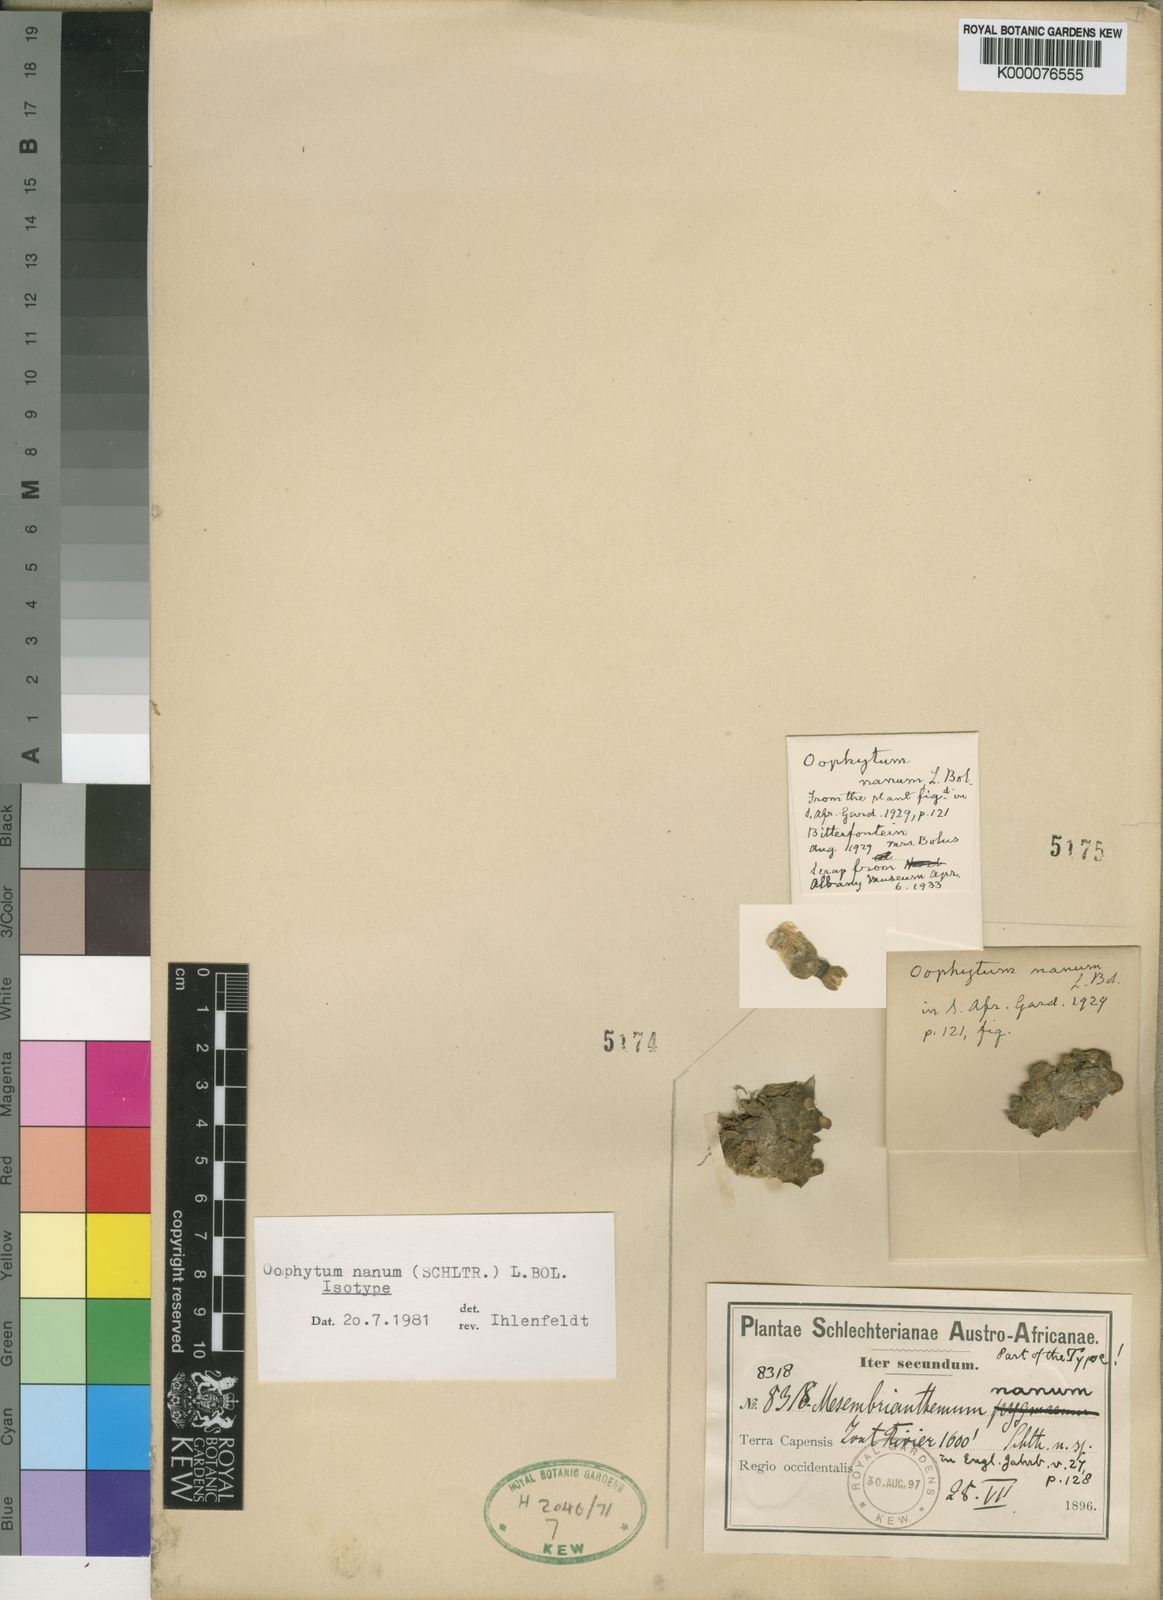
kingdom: Plantae
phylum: Tracheophyta
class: Magnoliopsida
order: Caryophyllales
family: Aizoaceae
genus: Oophytum
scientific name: Oophytum nanum
